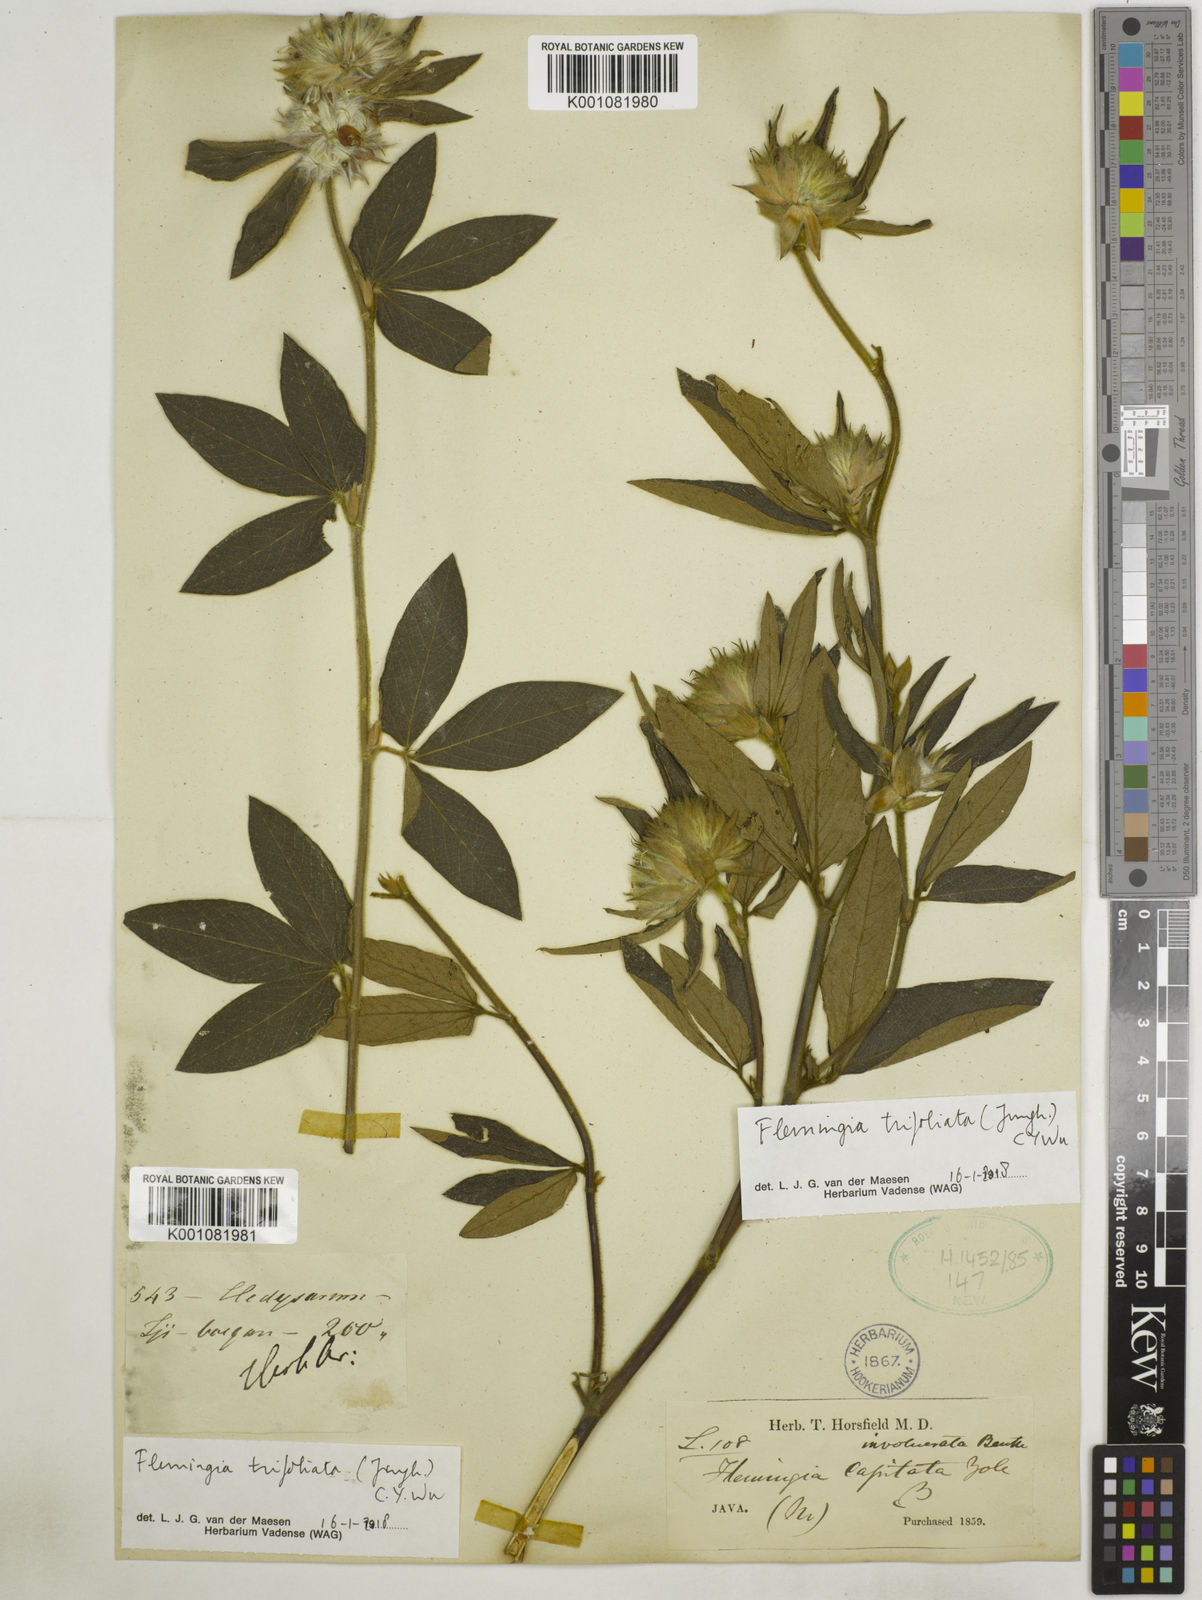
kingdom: Plantae
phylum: Tracheophyta
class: Magnoliopsida
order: Fabales
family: Fabaceae
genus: Flemingia
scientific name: Flemingia trifoliata
